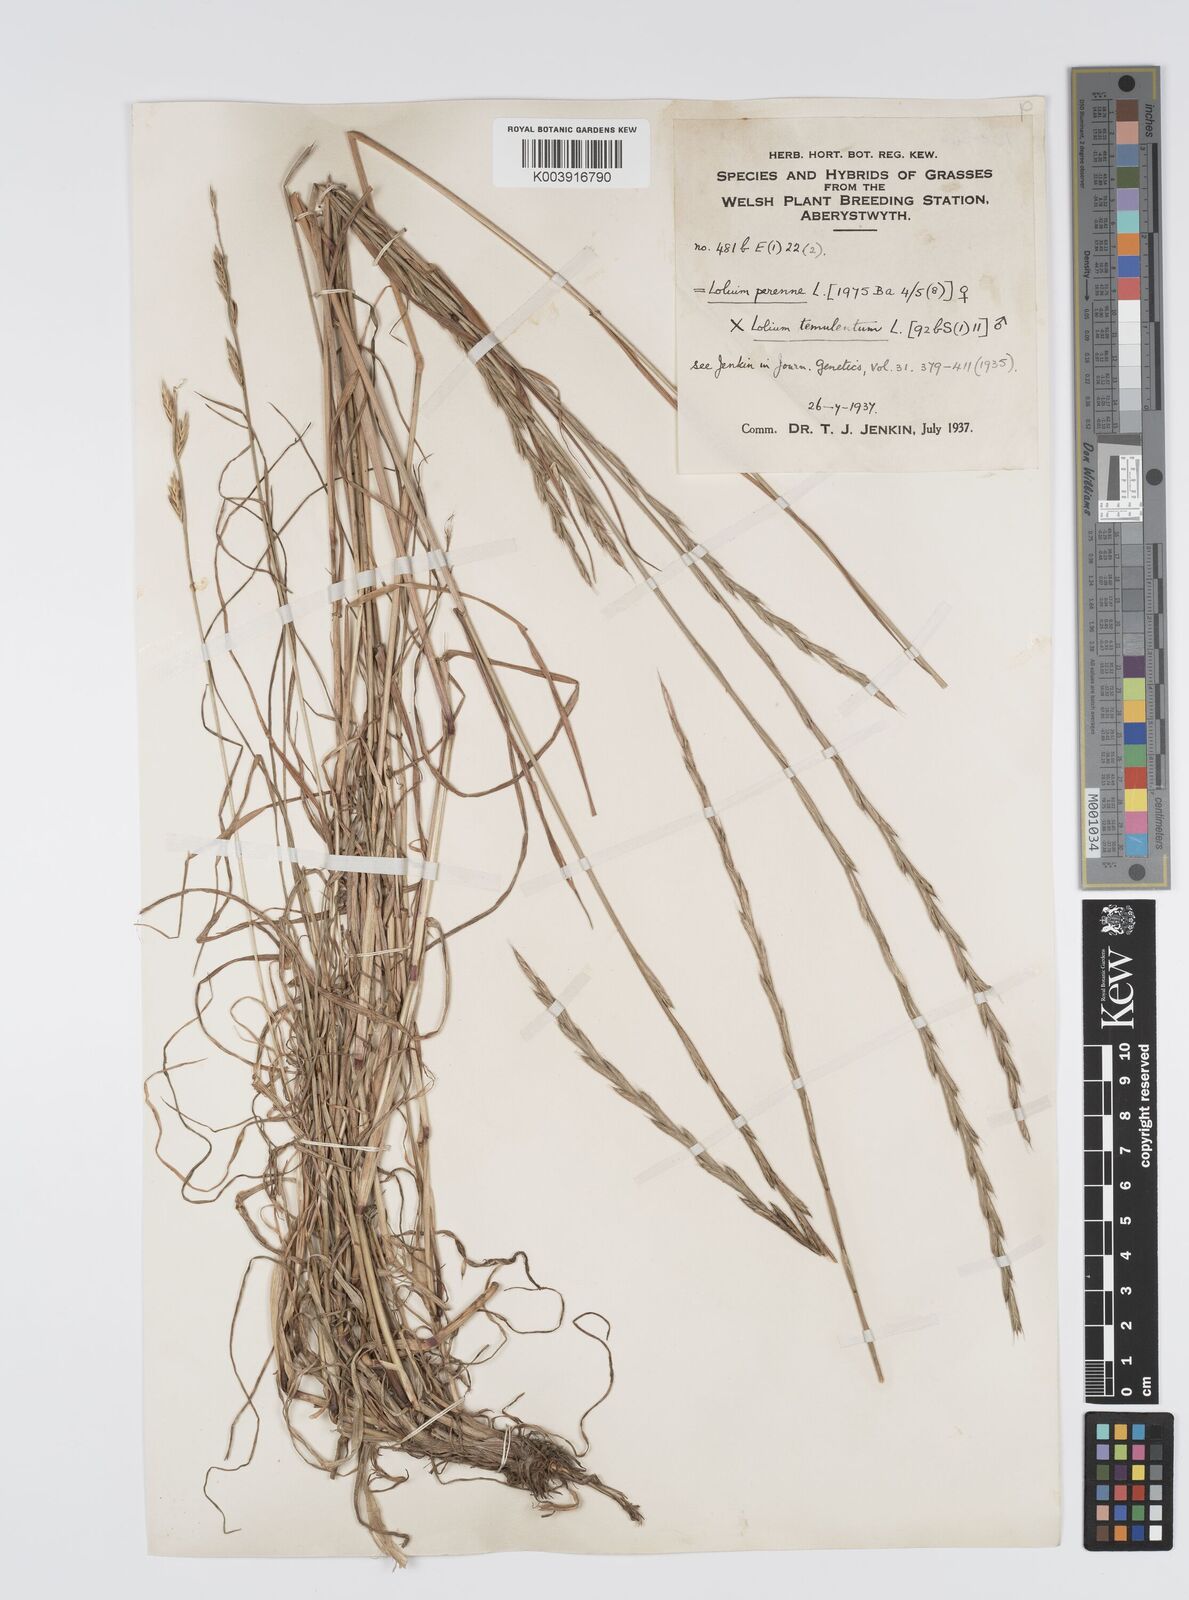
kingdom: Plantae
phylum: Tracheophyta
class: Liliopsida
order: Poales
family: Poaceae
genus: Lolium
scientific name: Lolium perenne
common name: Perennial ryegrass
